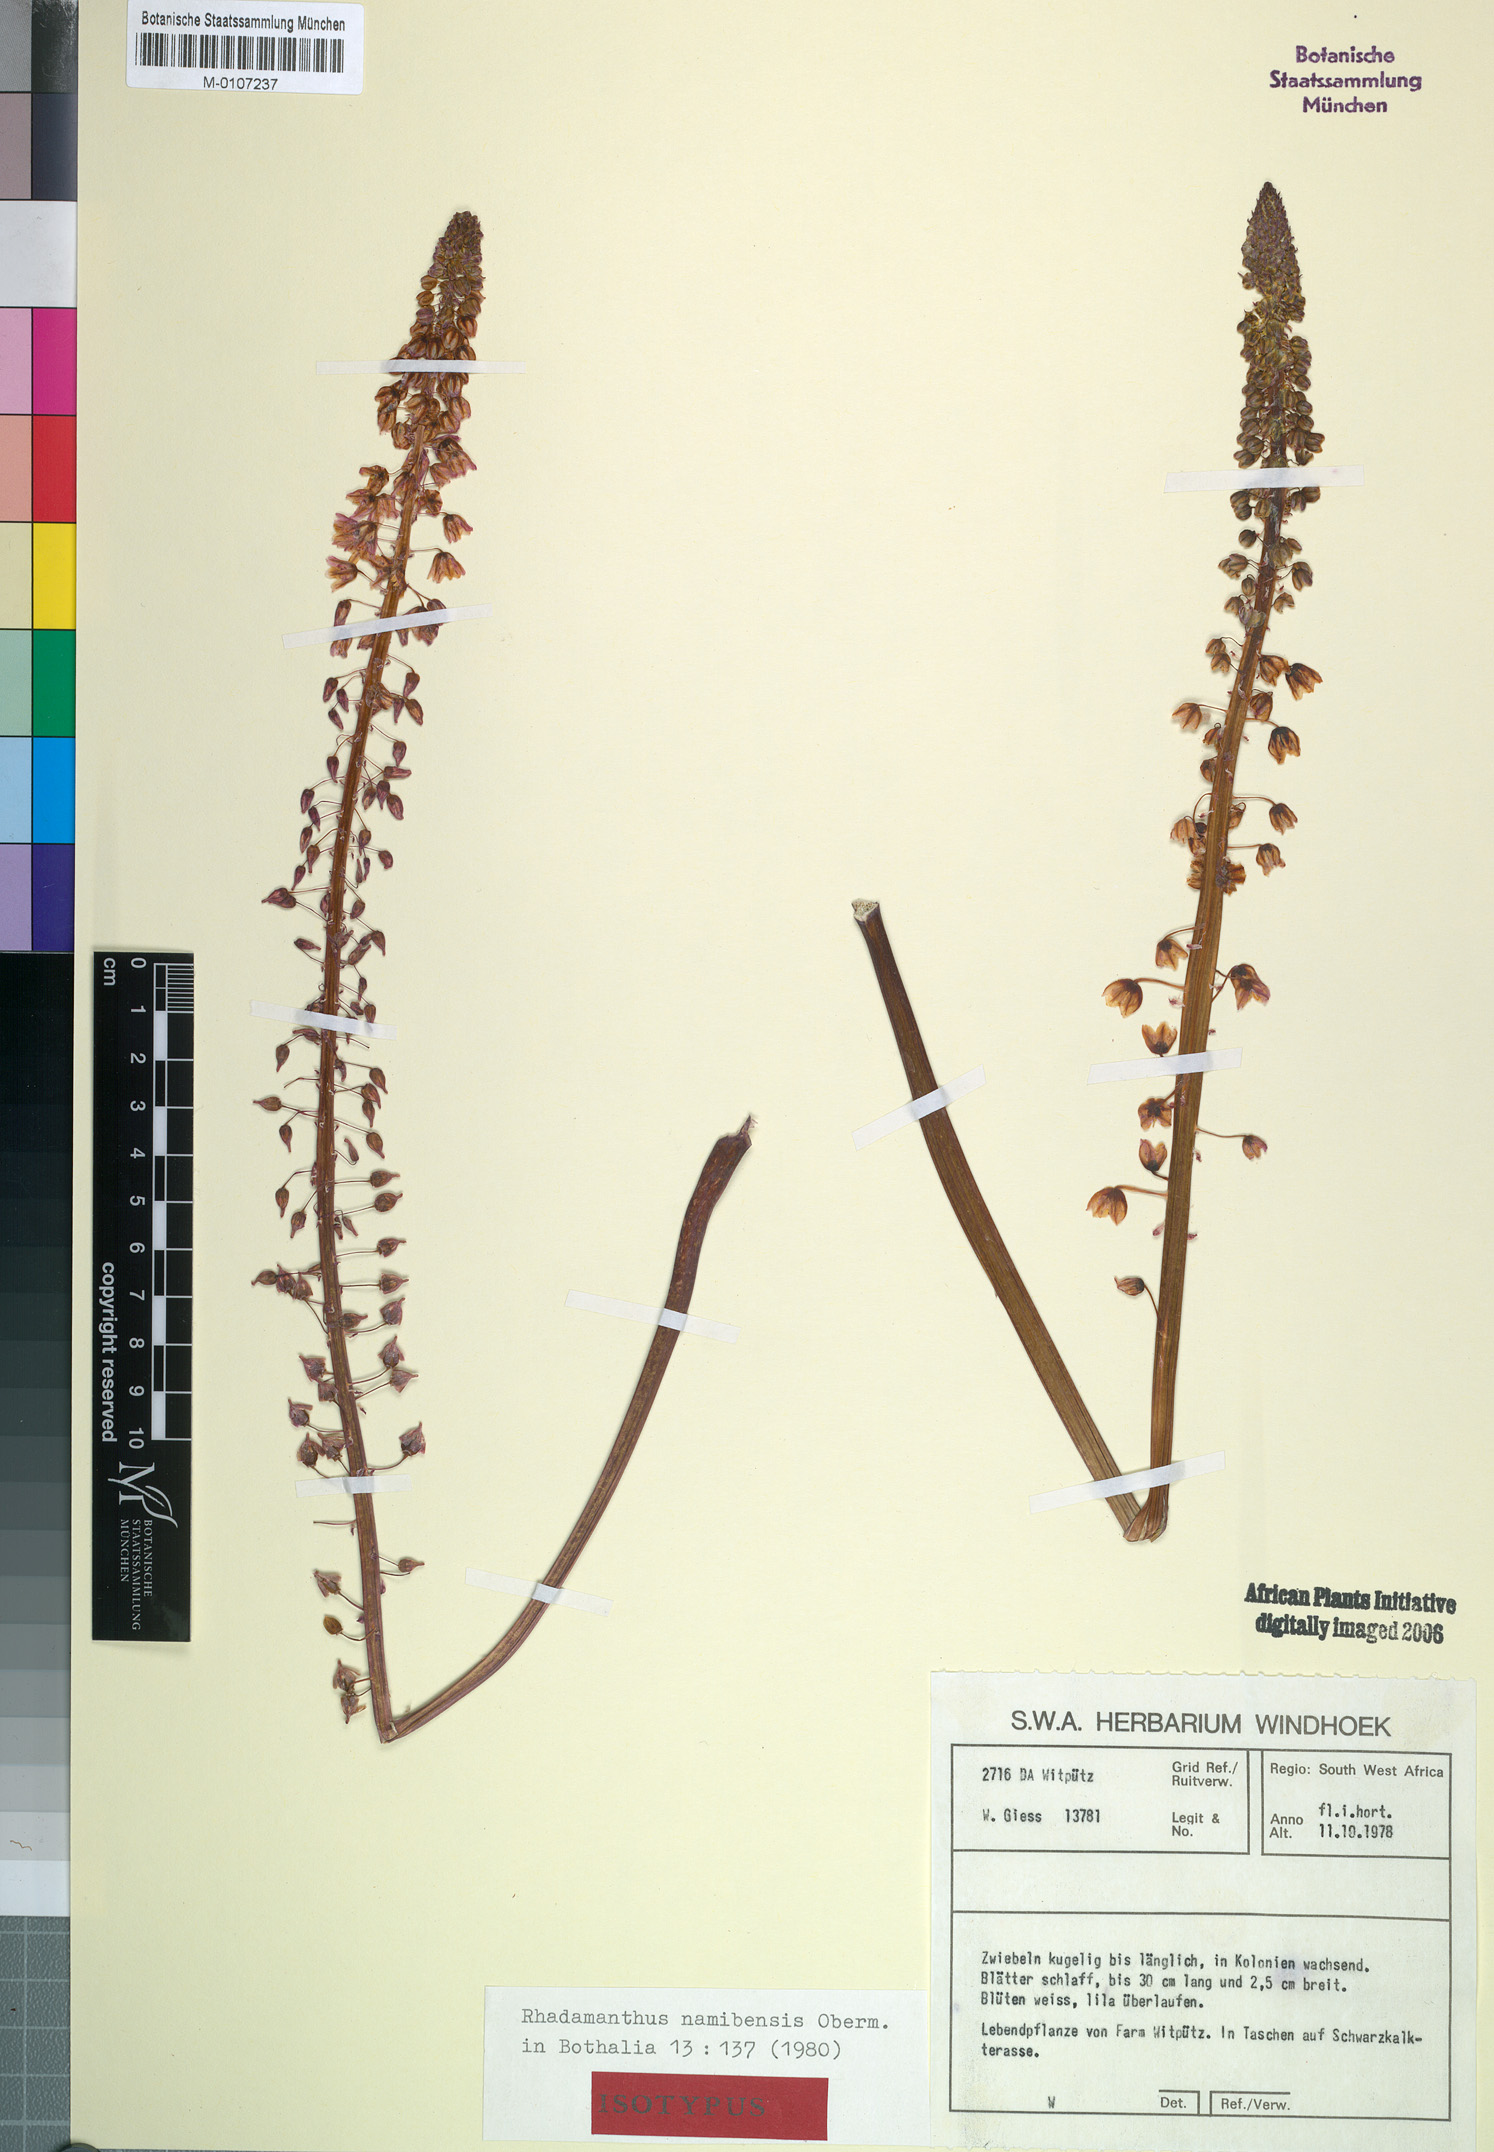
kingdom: Plantae
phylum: Tracheophyta
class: Liliopsida
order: Asparagales
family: Asparagaceae
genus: Drimia
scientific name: Drimia namibensis
